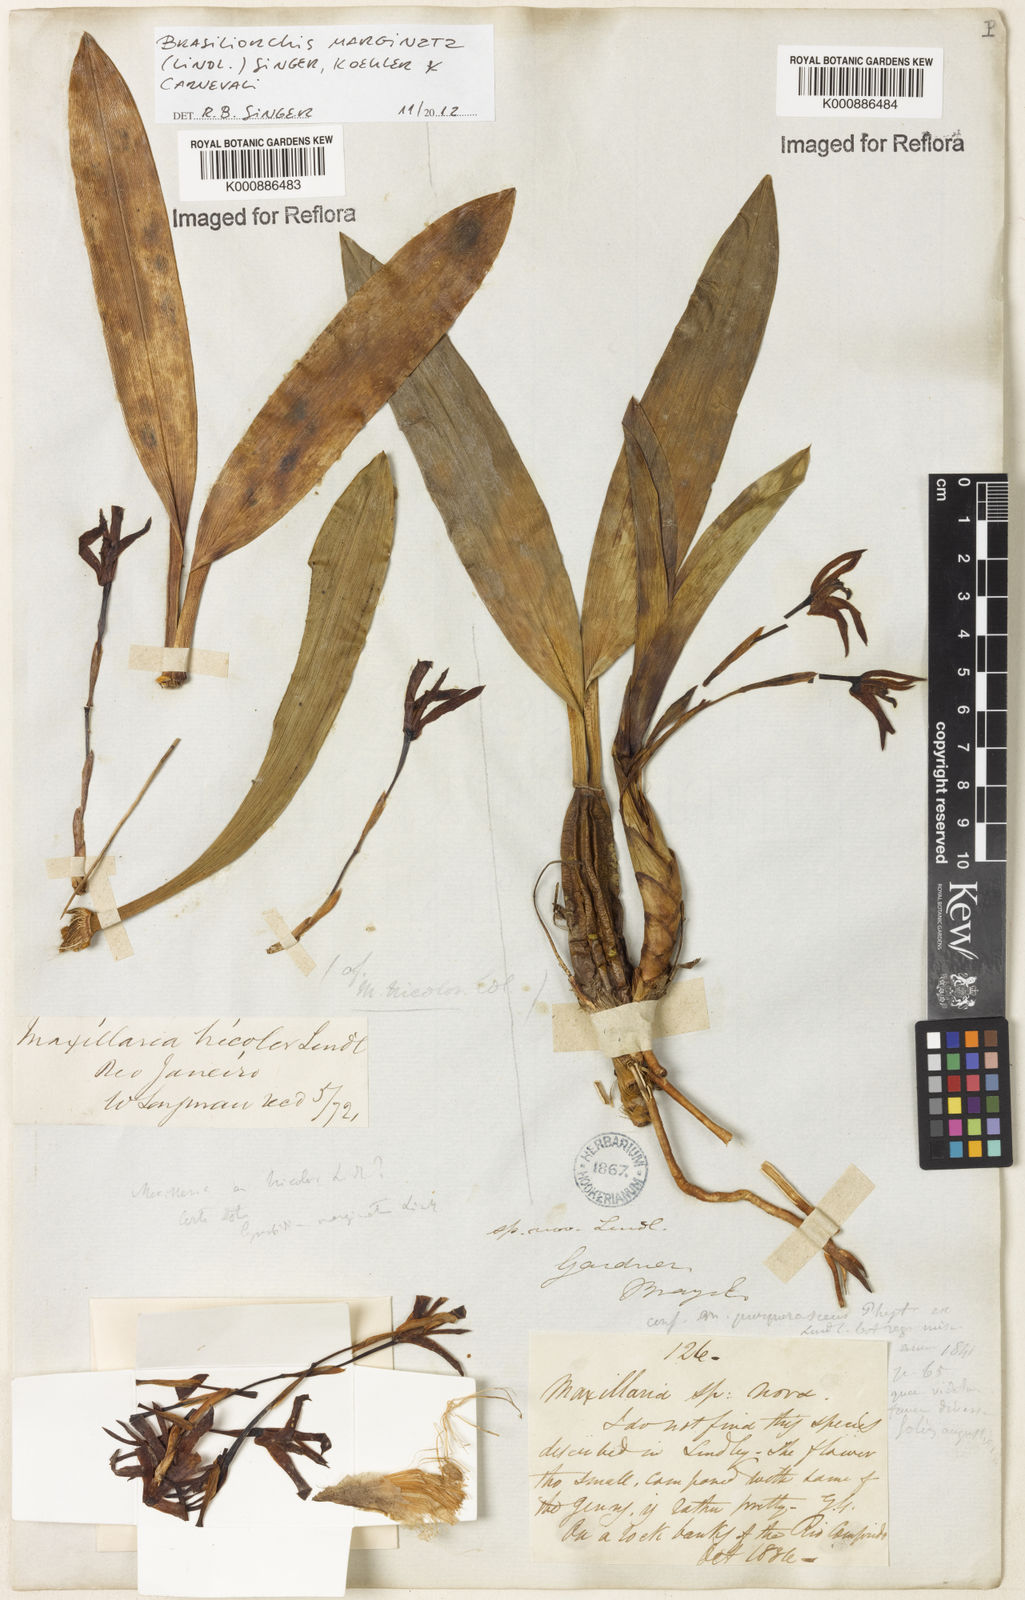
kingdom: Plantae
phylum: Tracheophyta
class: Liliopsida
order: Asparagales
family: Orchidaceae
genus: Maxillaria
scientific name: Maxillaria marginata
